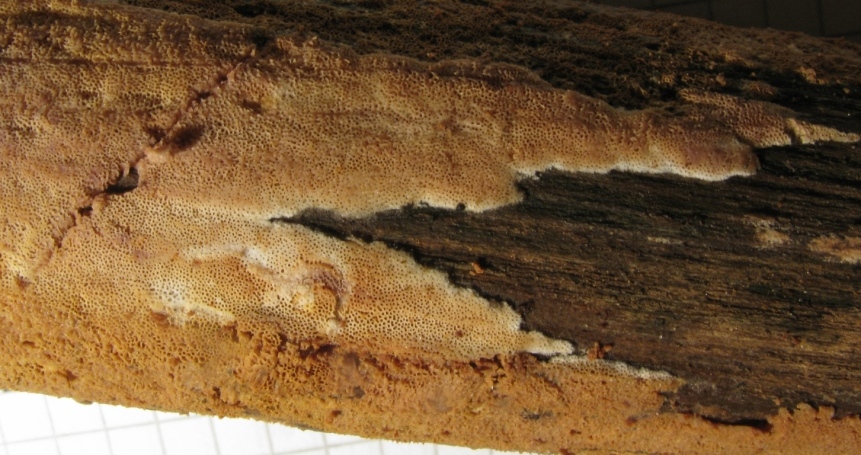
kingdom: Fungi
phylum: Basidiomycota
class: Agaricomycetes
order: Polyporales
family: Irpicaceae
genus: Ceriporia
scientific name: Ceriporia purpurea
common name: purpur-voksporesvamp
